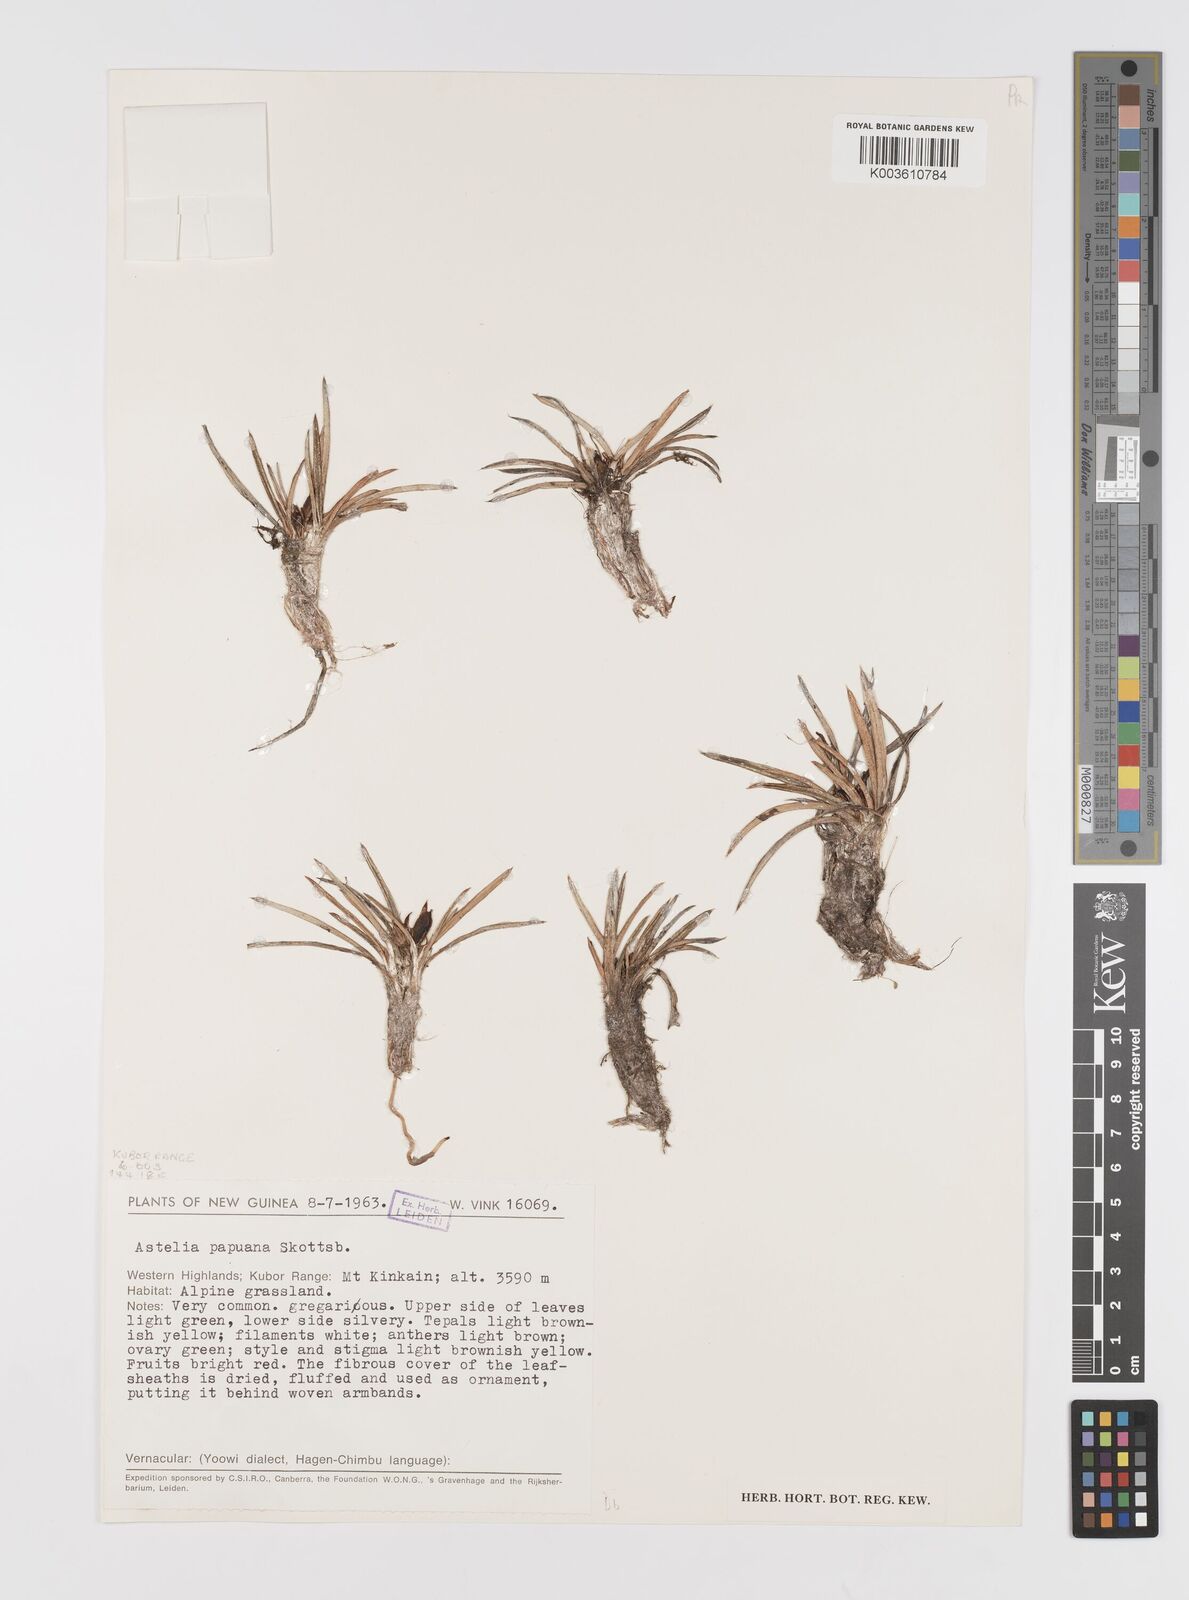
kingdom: Plantae
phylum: Tracheophyta
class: Liliopsida
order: Asparagales
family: Asteliaceae
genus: Astelia
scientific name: Astelia papuana
